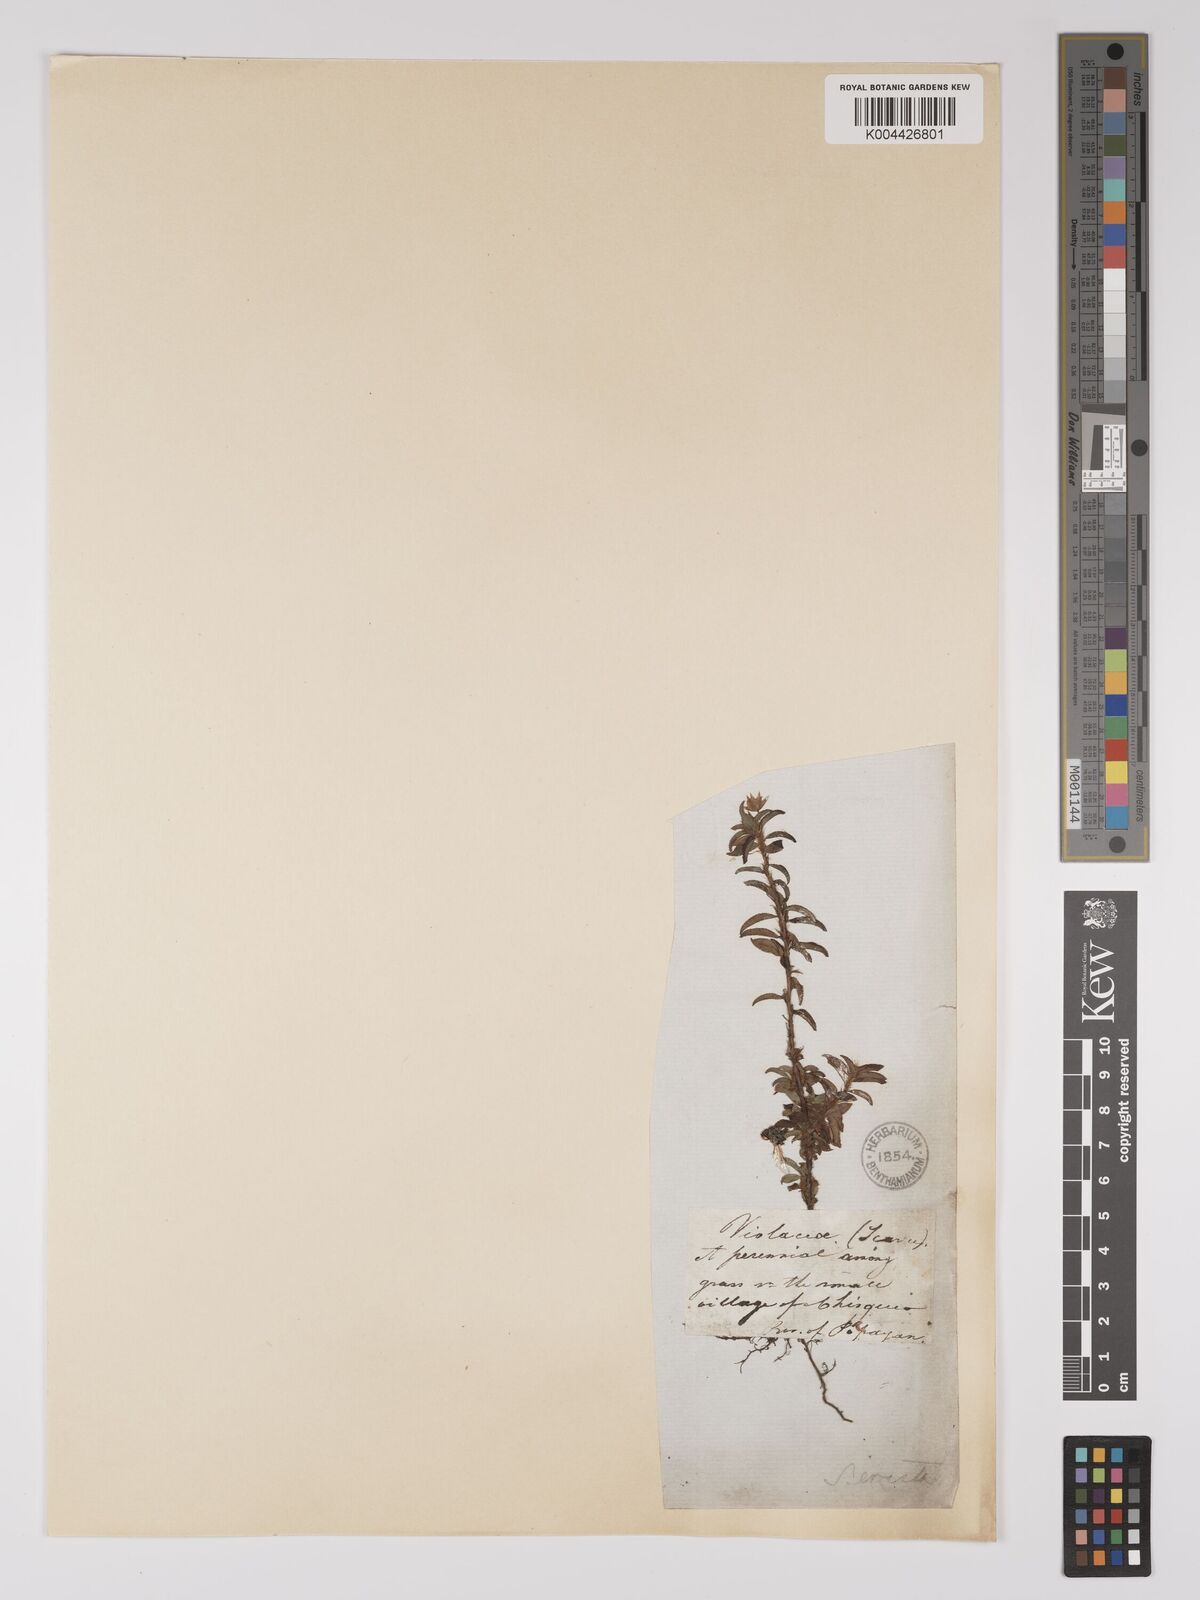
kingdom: Plantae
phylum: Tracheophyta
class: Magnoliopsida
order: Malpighiales
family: Ochnaceae
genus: Sauvagesia
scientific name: Sauvagesia erecta
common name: Creole tea
